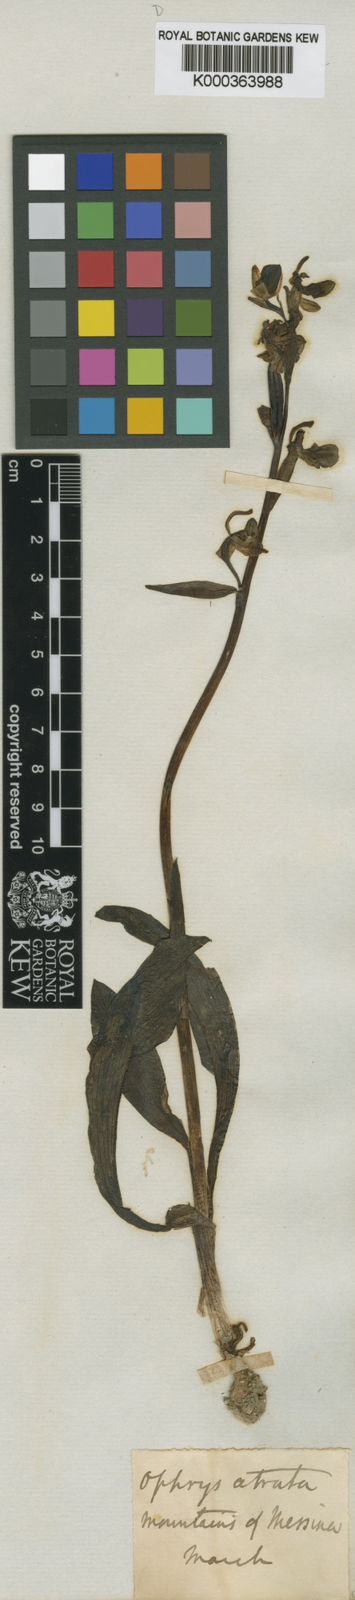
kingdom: Plantae
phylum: Tracheophyta
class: Liliopsida
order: Asparagales
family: Orchidaceae
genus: Ophrys
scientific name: Ophrys sphegodes
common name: Early spider-orchid
